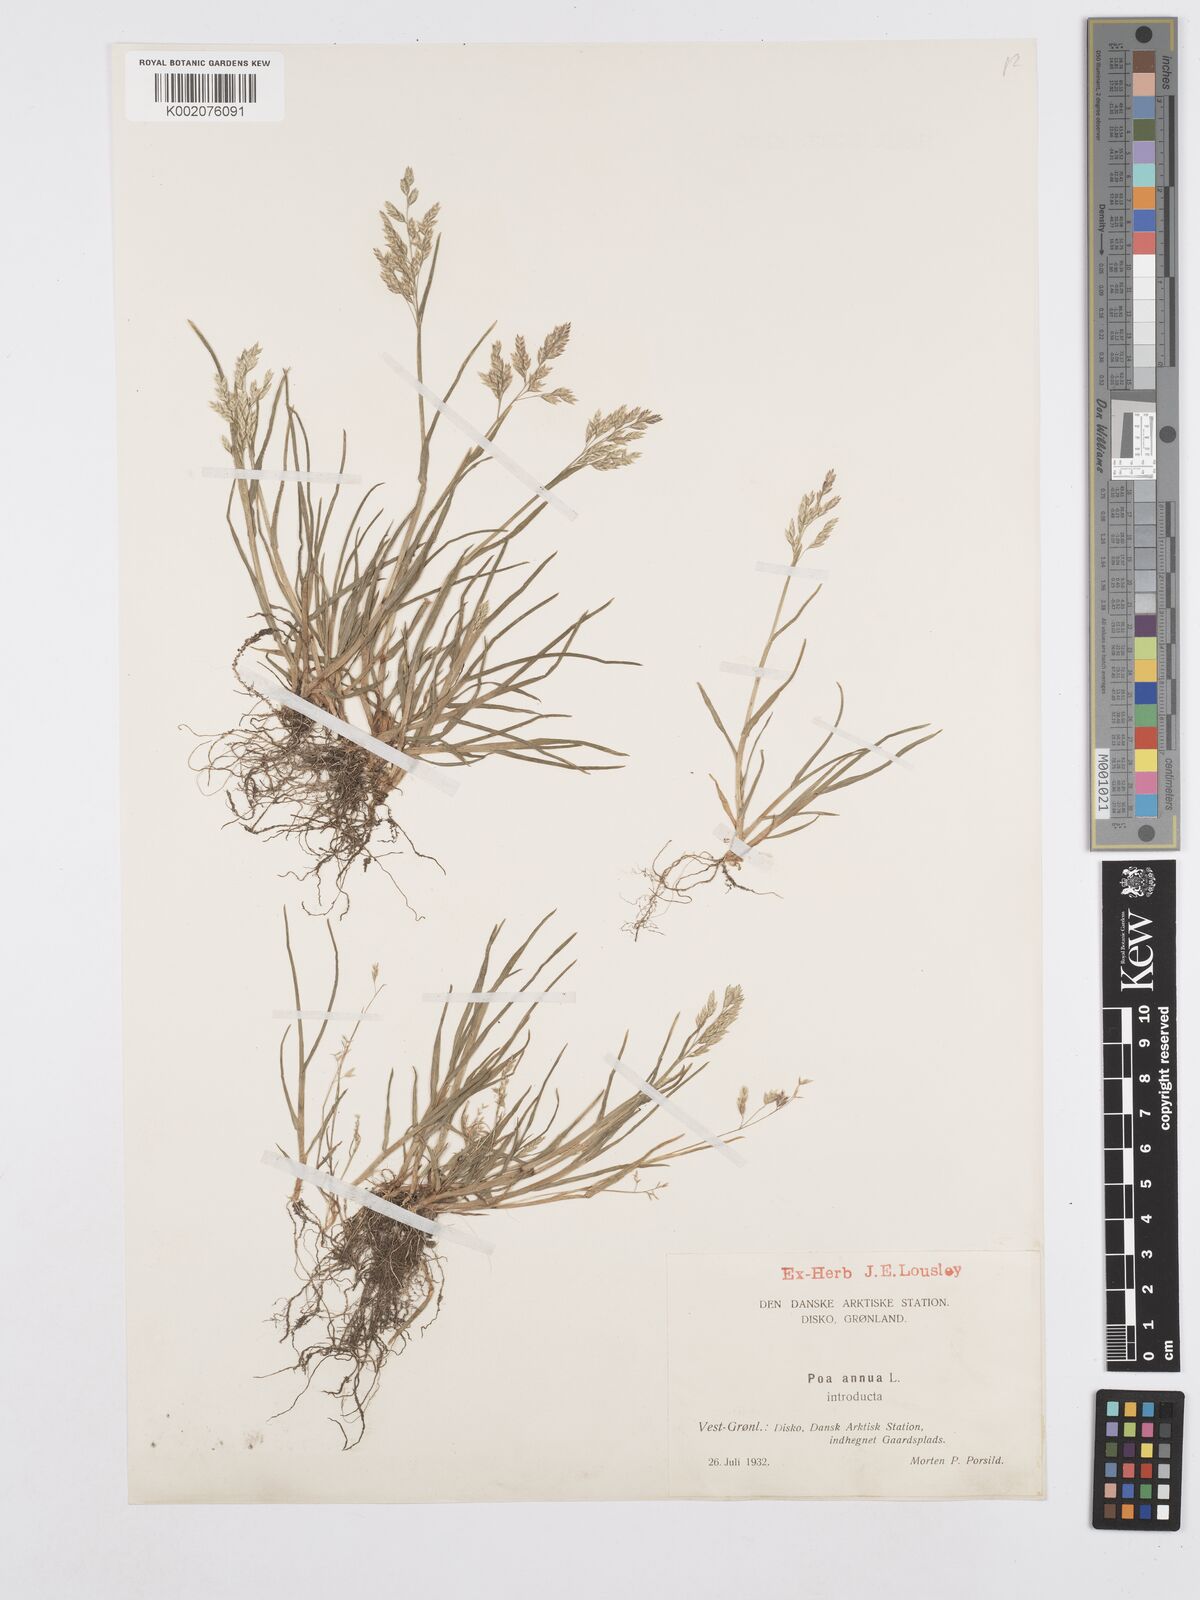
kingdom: Plantae
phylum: Tracheophyta
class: Liliopsida
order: Poales
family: Poaceae
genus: Poa
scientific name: Poa annua
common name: Annual bluegrass
